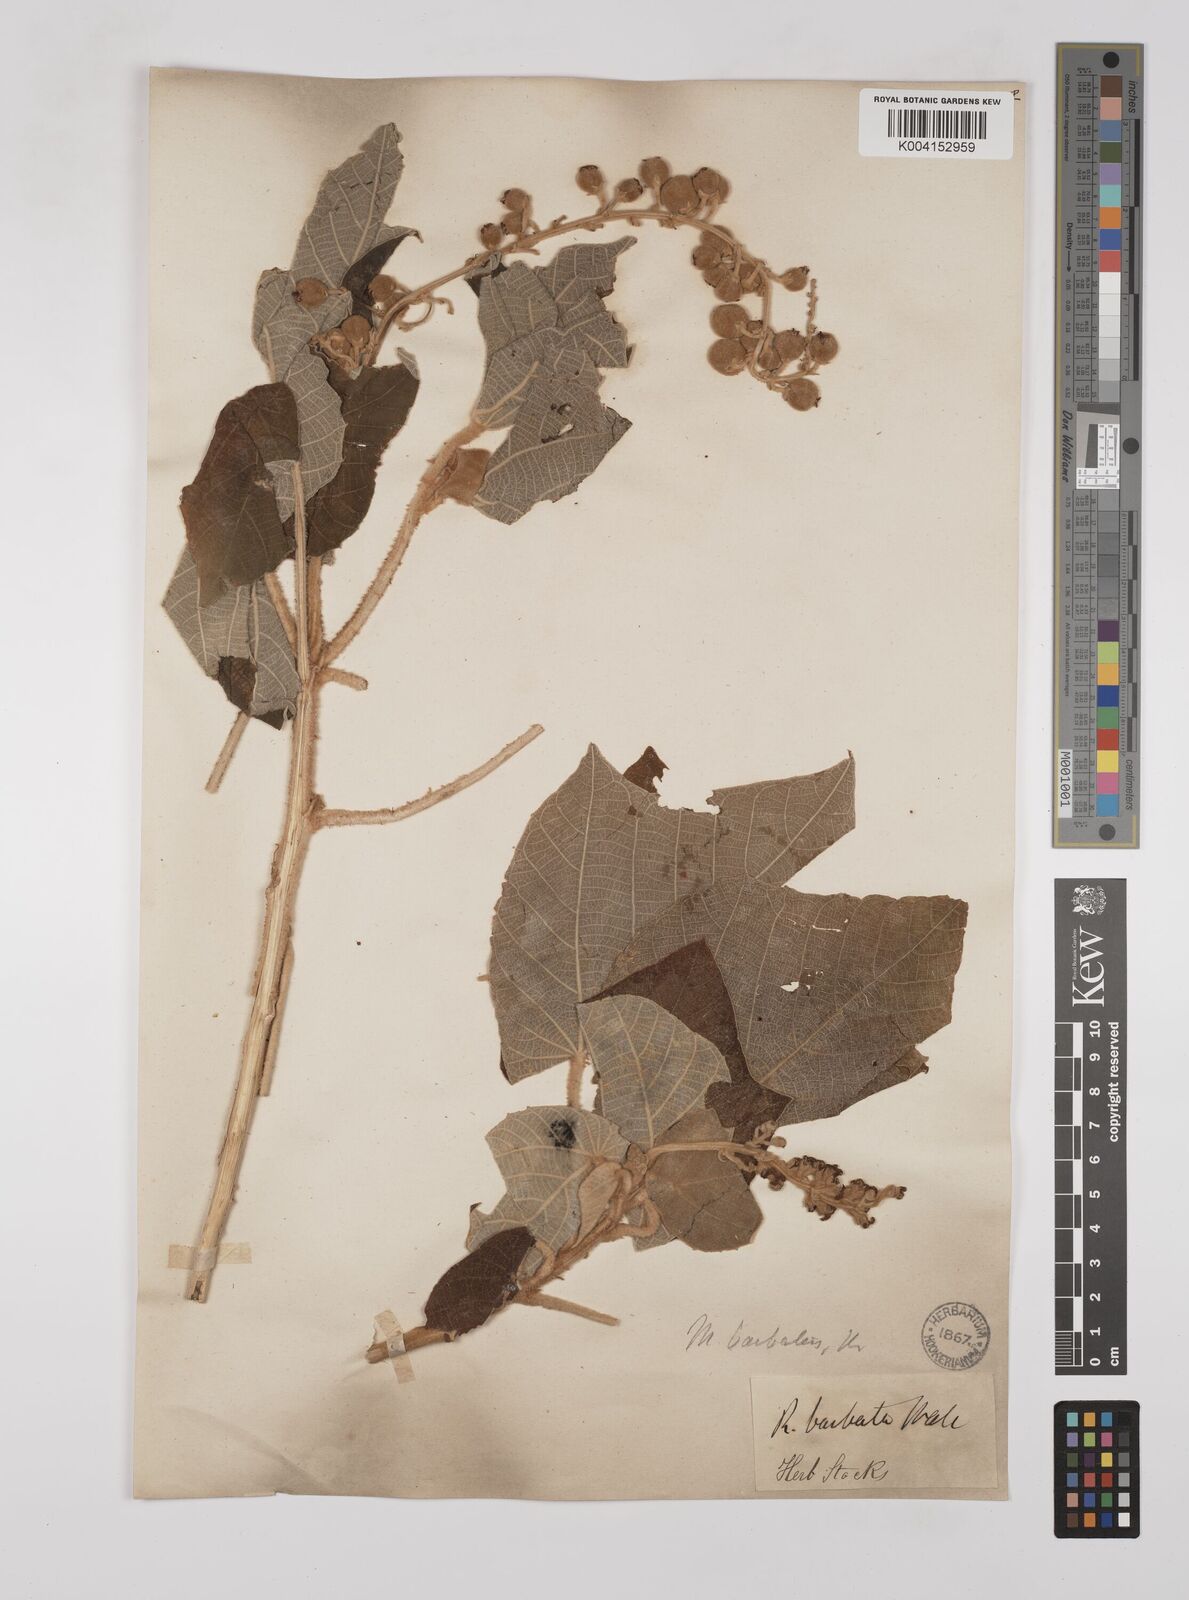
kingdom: Plantae
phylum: Tracheophyta
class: Magnoliopsida
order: Malpighiales
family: Euphorbiaceae
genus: Mallotus
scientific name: Mallotus barbatus
